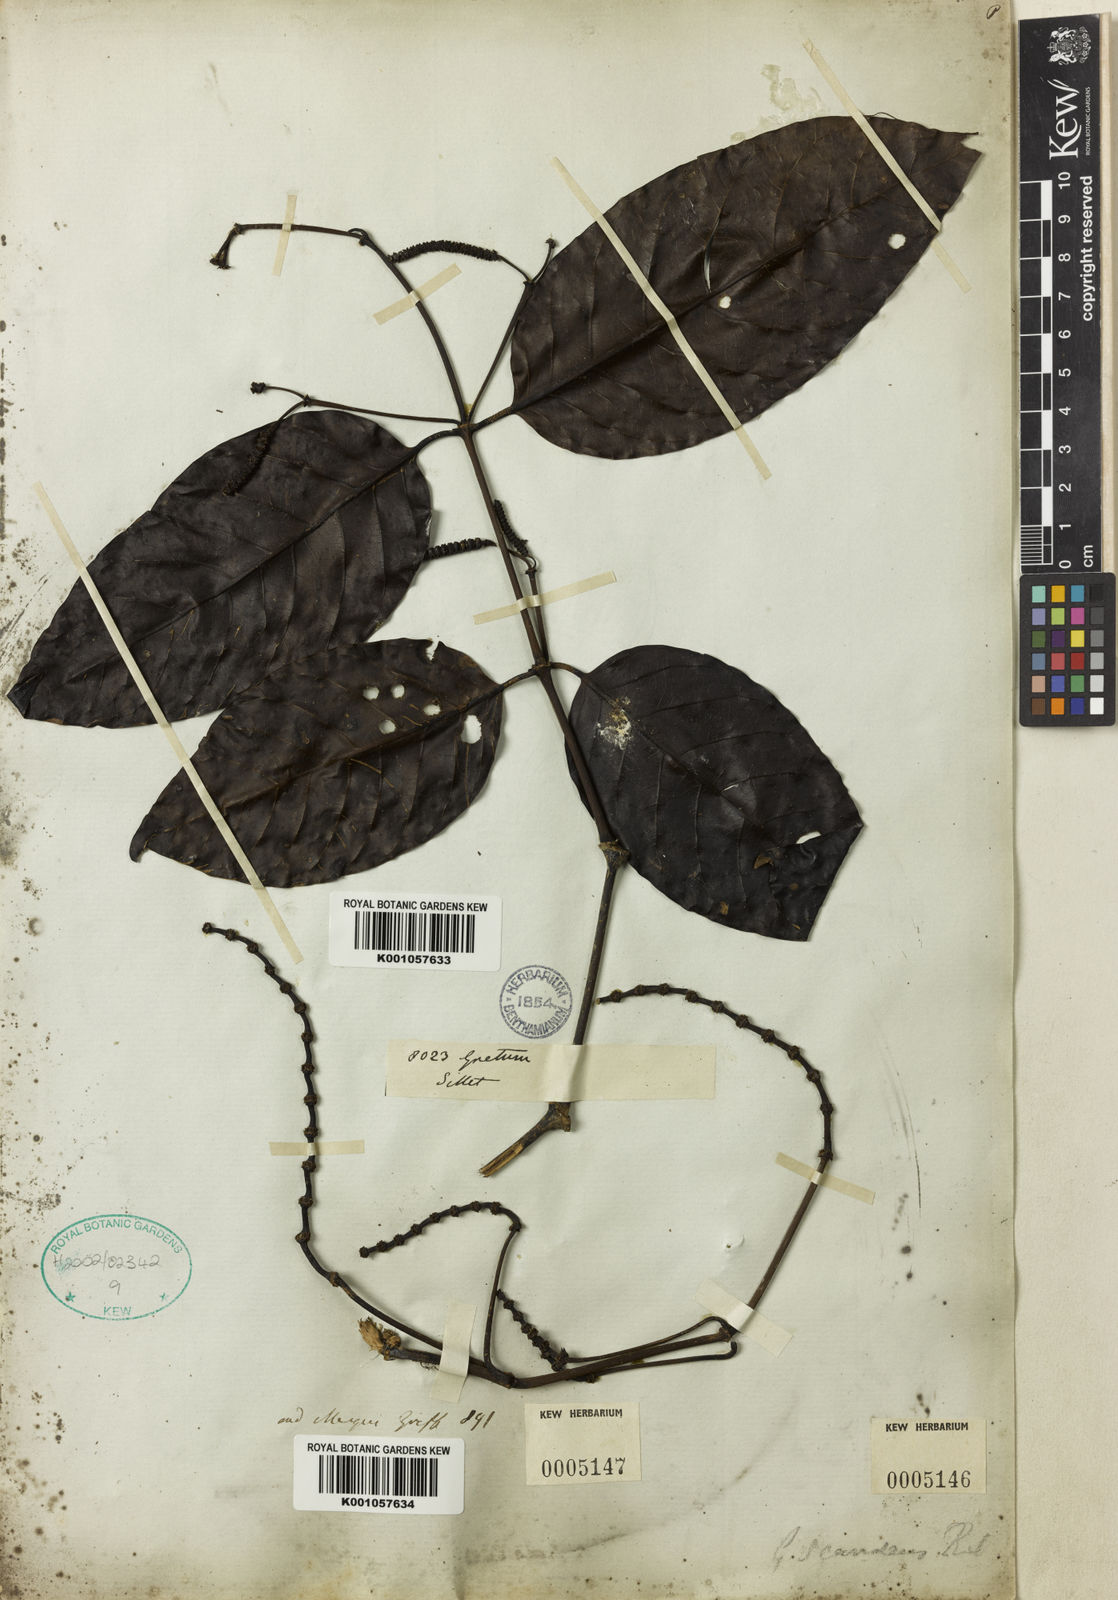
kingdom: Plantae
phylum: Tracheophyta
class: Gnetopsida
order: Gnetales
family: Gnetaceae
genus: Gnetum
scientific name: Gnetum edule
